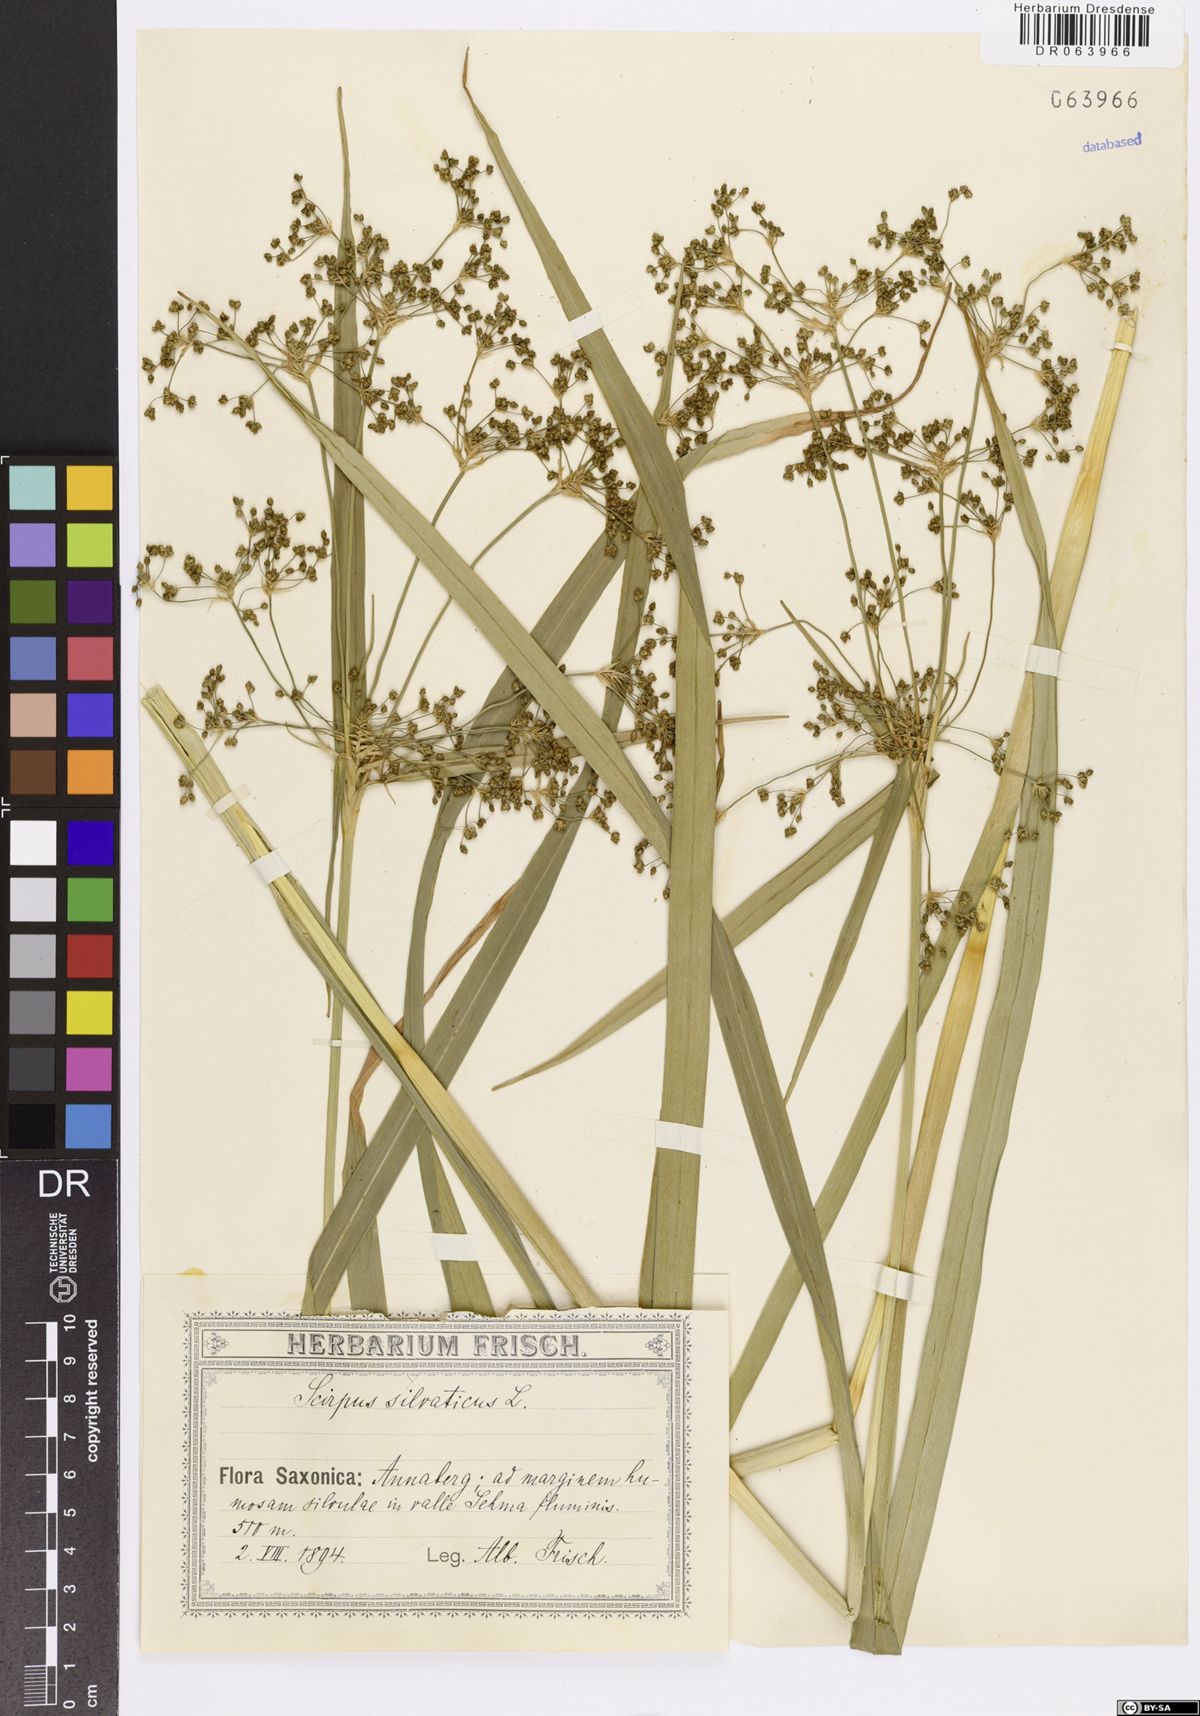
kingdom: Plantae
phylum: Tracheophyta
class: Liliopsida
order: Poales
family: Cyperaceae
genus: Scirpus
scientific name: Scirpus sylvaticus
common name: Wood club-rush
